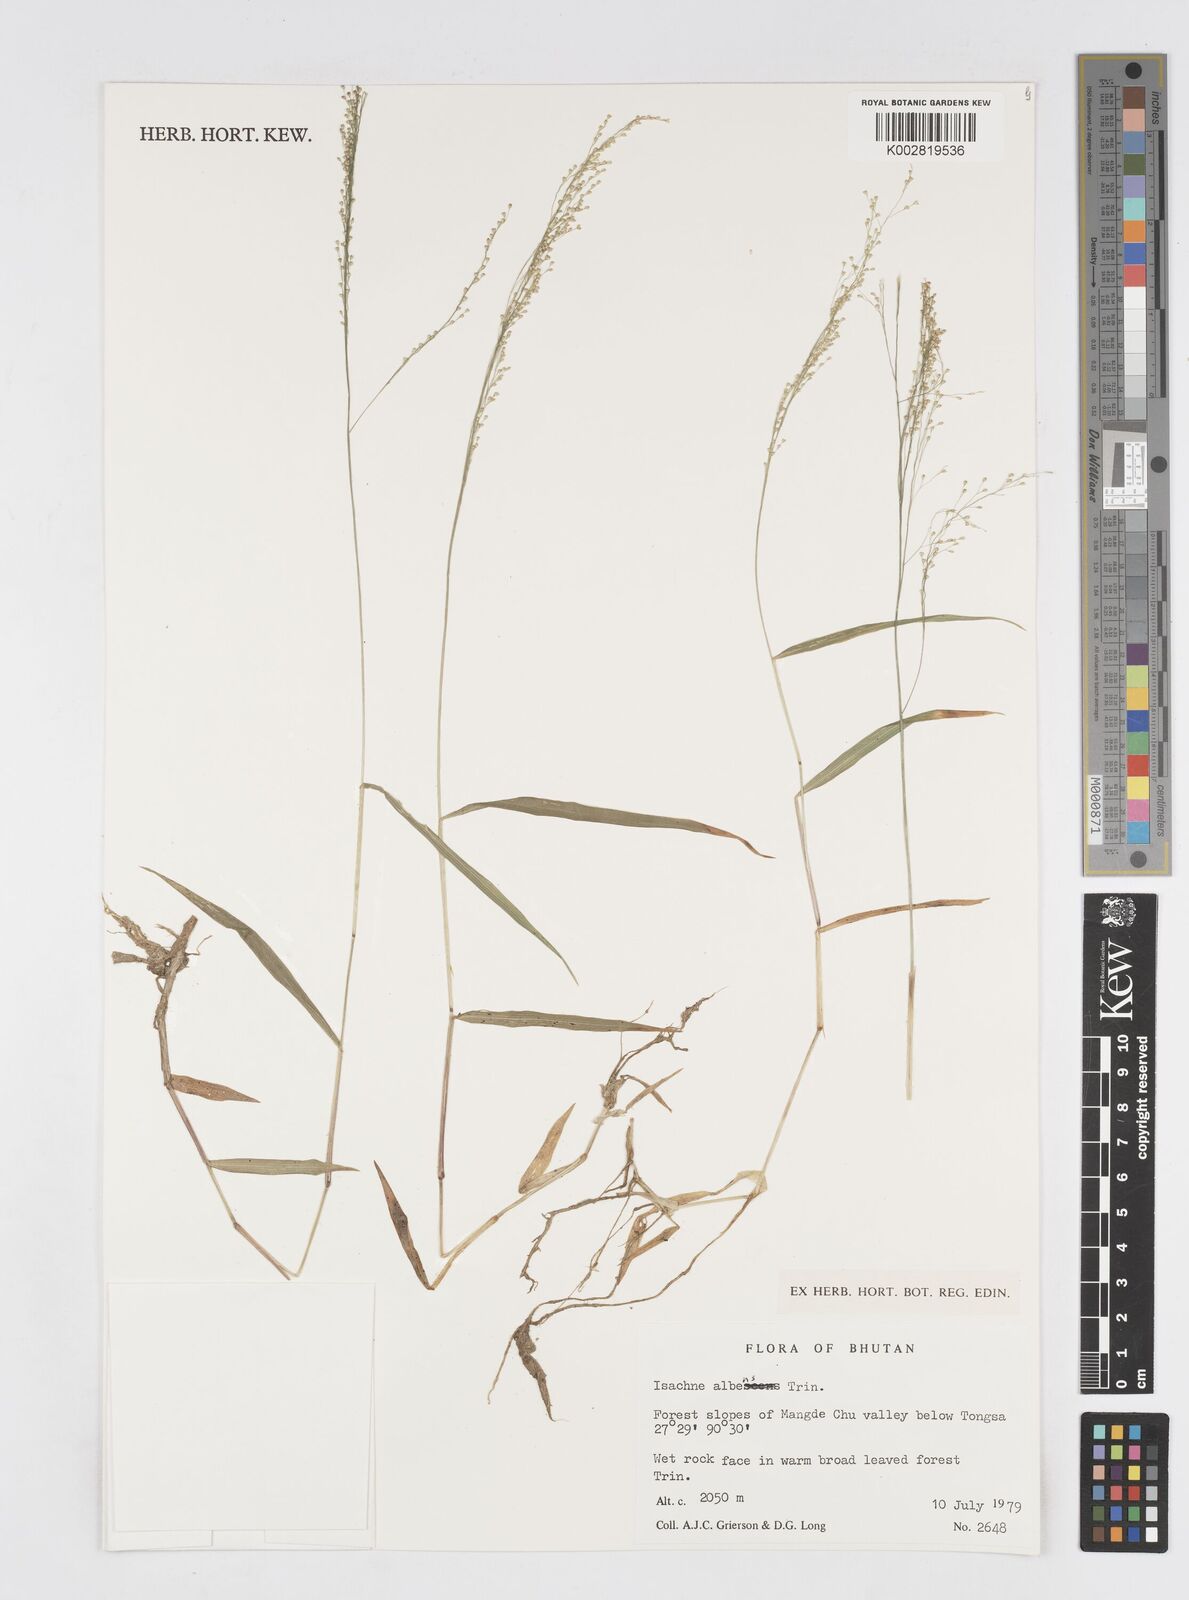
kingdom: Plantae
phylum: Tracheophyta
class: Liliopsida
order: Poales
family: Poaceae
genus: Isachne
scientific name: Isachne albens
